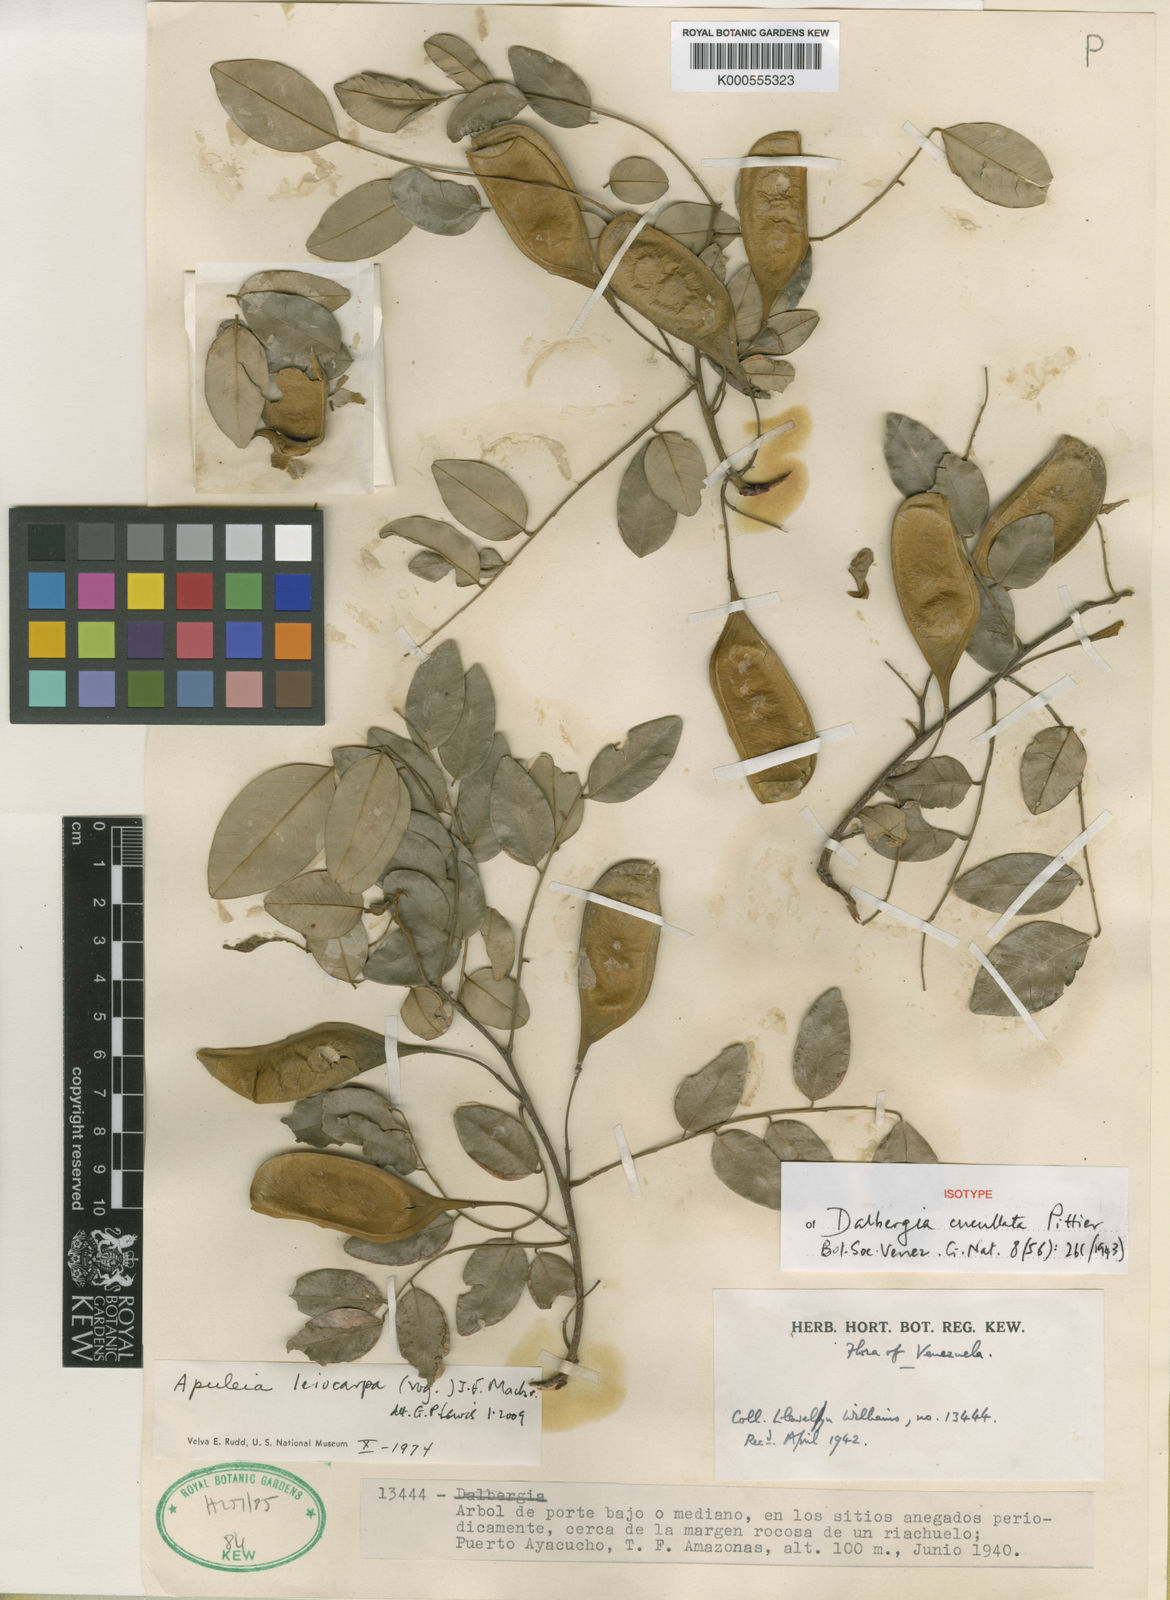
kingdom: Plantae
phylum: Tracheophyta
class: Magnoliopsida
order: Fabales
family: Fabaceae
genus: Apuleia
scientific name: Apuleia leiocarpa
